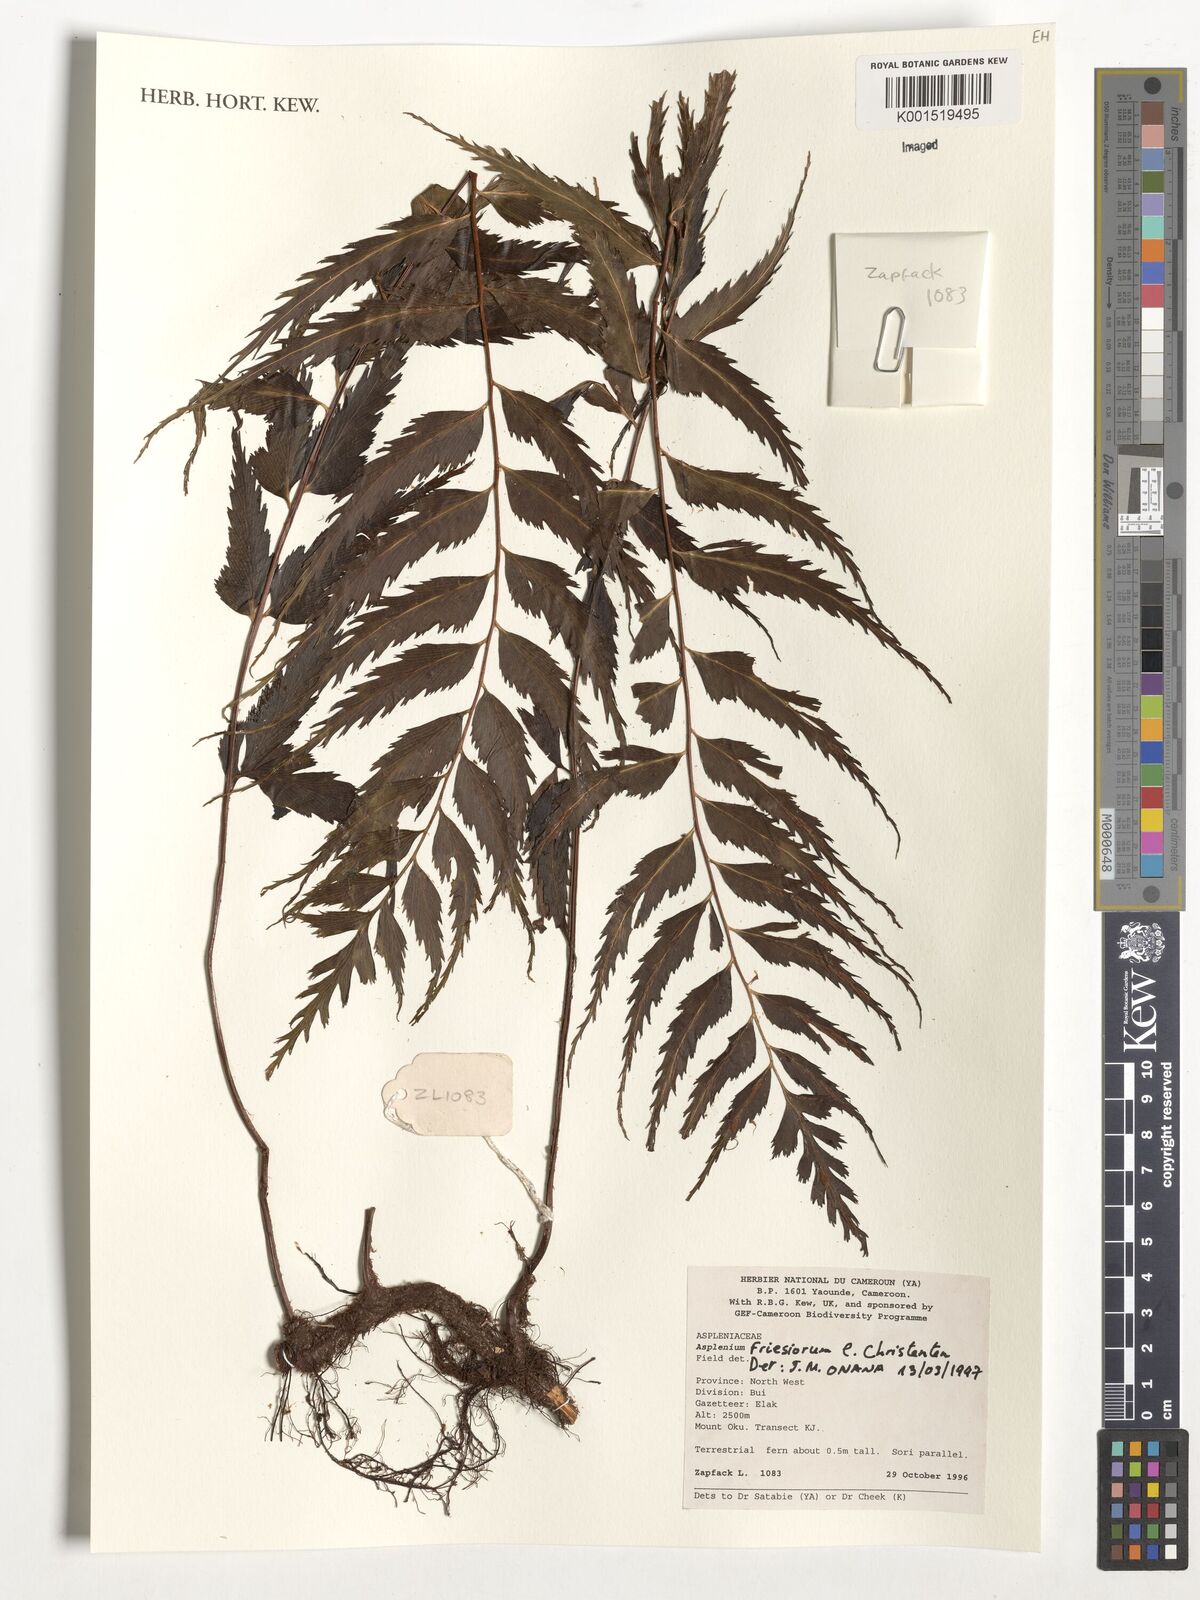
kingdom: Plantae
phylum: Tracheophyta
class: Polypodiopsida
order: Polypodiales
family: Aspleniaceae
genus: Asplenium
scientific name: Asplenium gueinzianum
